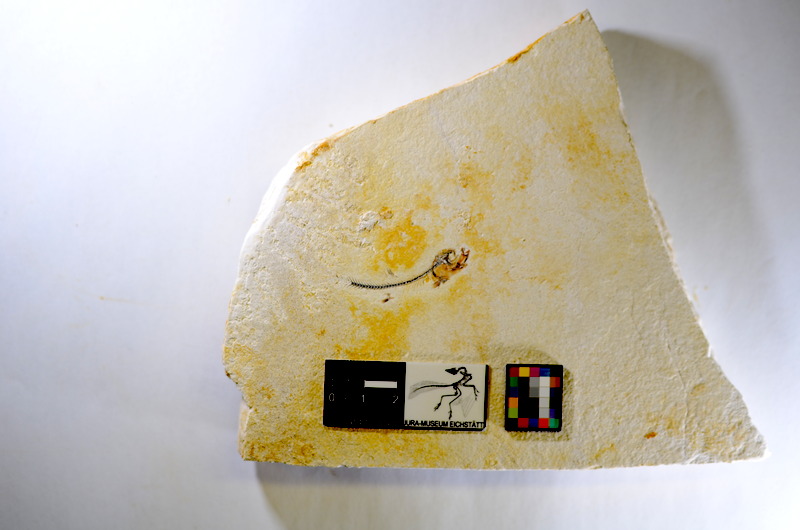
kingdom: Animalia
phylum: Chordata
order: Salmoniformes
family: Orthogonikleithridae
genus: Orthogonikleithrus
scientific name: Orthogonikleithrus hoelli
